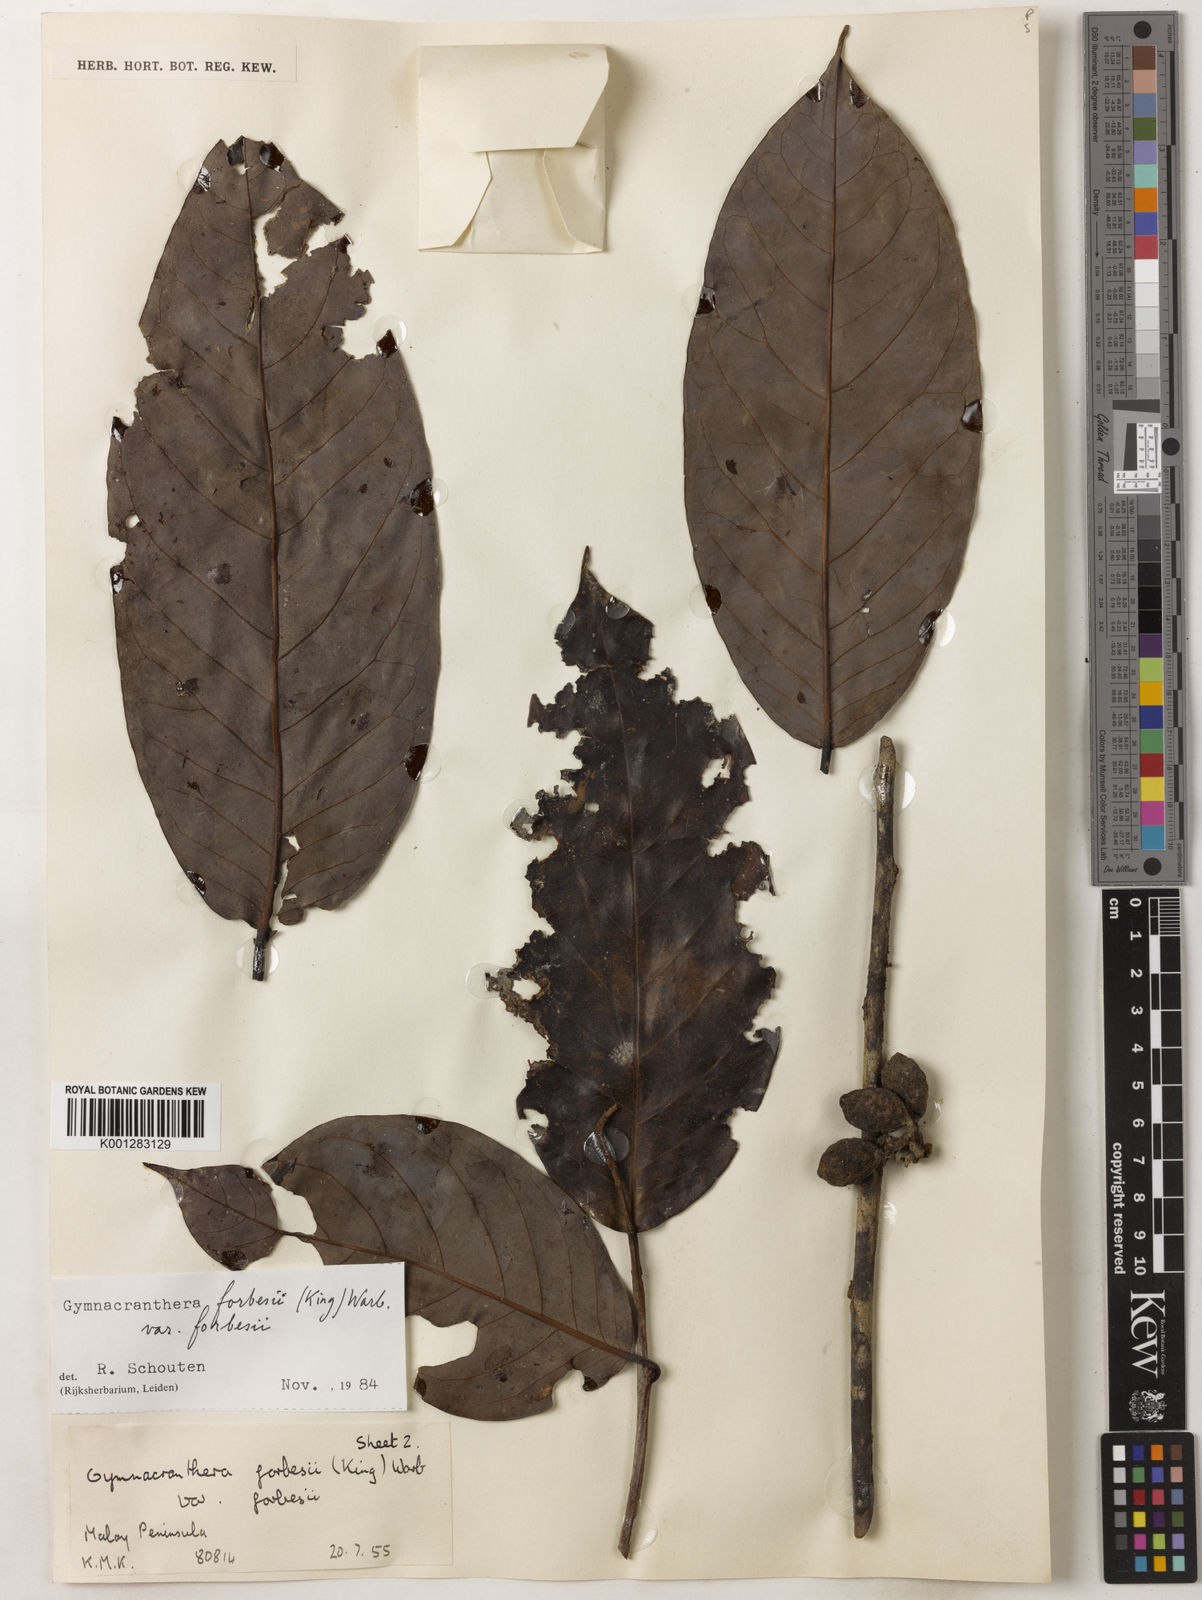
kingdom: Plantae
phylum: Tracheophyta
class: Magnoliopsida
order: Magnoliales
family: Myristicaceae
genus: Gymnacranthera
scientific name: Gymnacranthera forbesii
